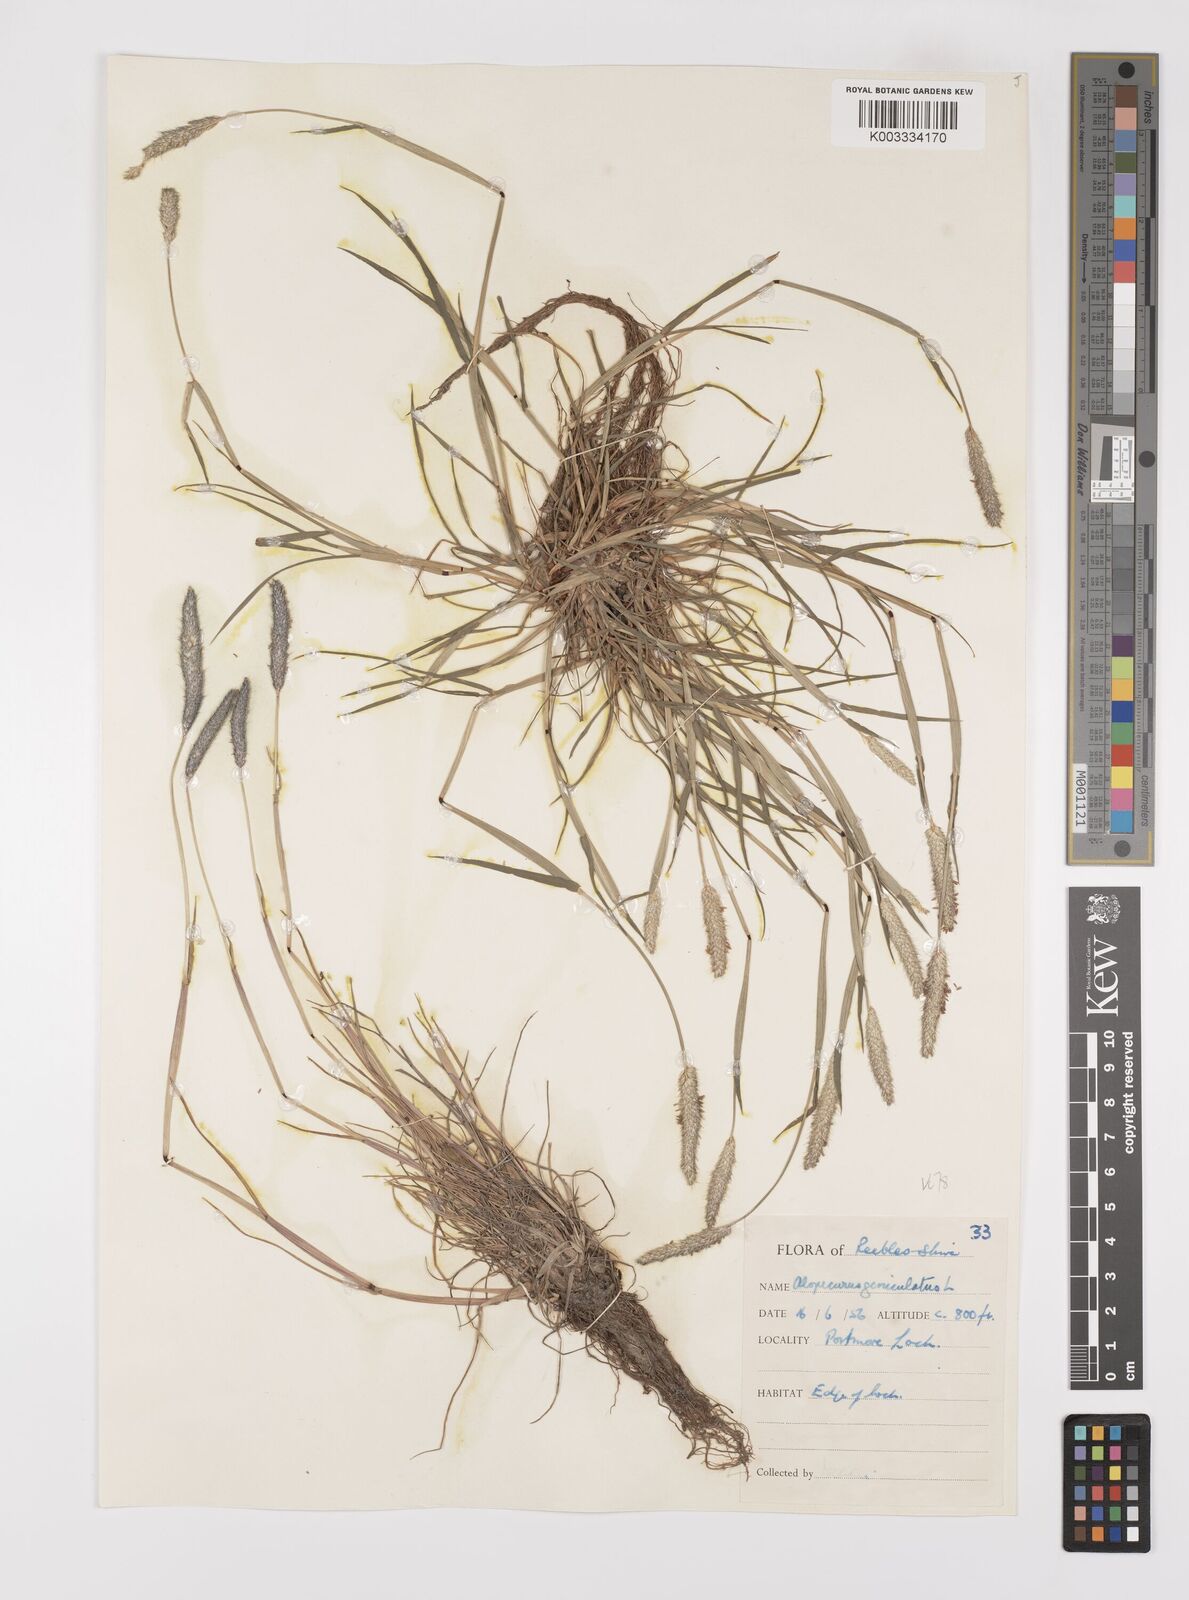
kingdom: Plantae
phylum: Tracheophyta
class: Liliopsida
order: Poales
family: Poaceae
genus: Alopecurus
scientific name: Alopecurus geniculatus
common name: Water foxtail
